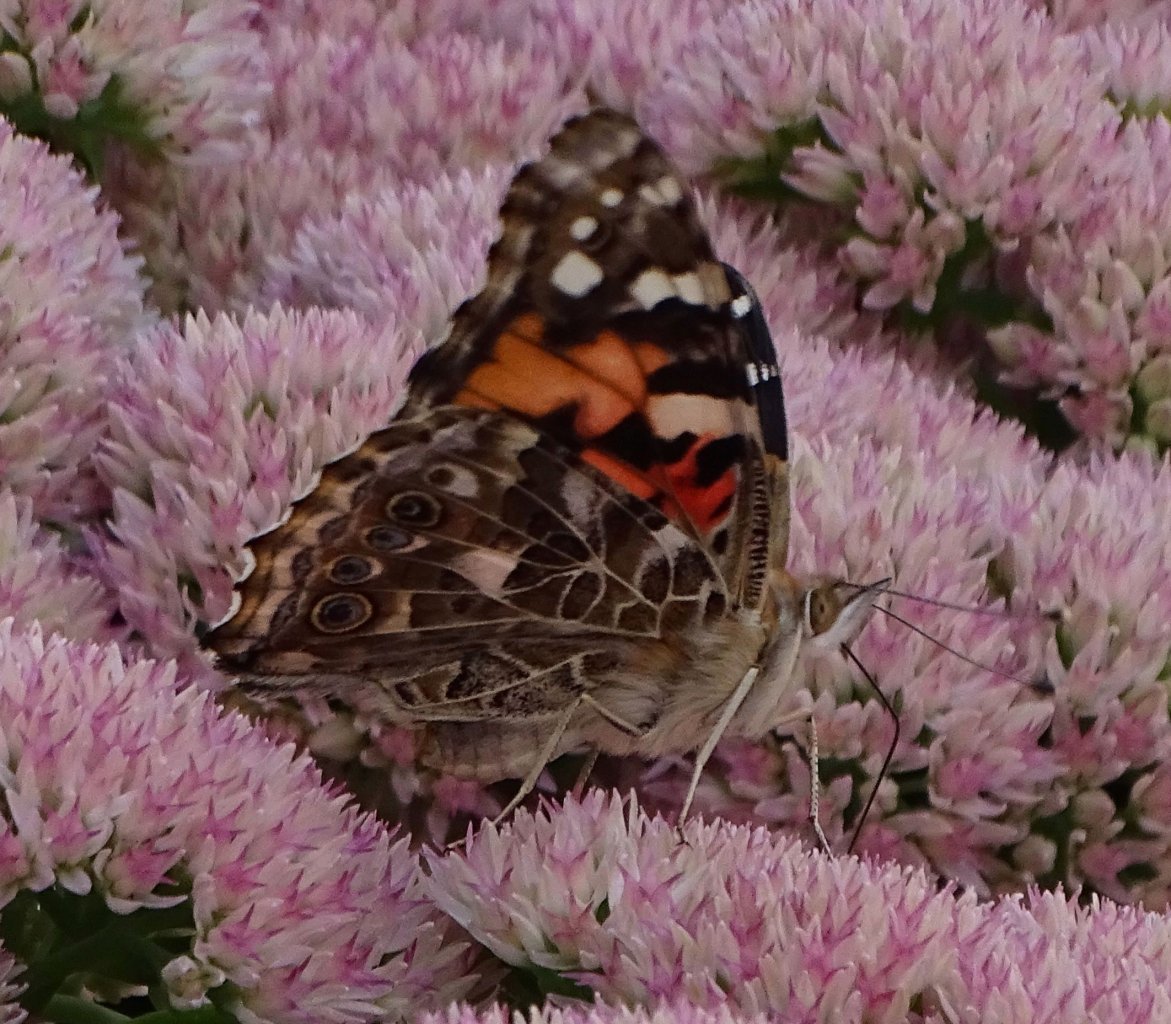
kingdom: Animalia
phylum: Arthropoda
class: Insecta
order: Lepidoptera
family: Nymphalidae
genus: Vanessa
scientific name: Vanessa cardui
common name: Painted Lady
